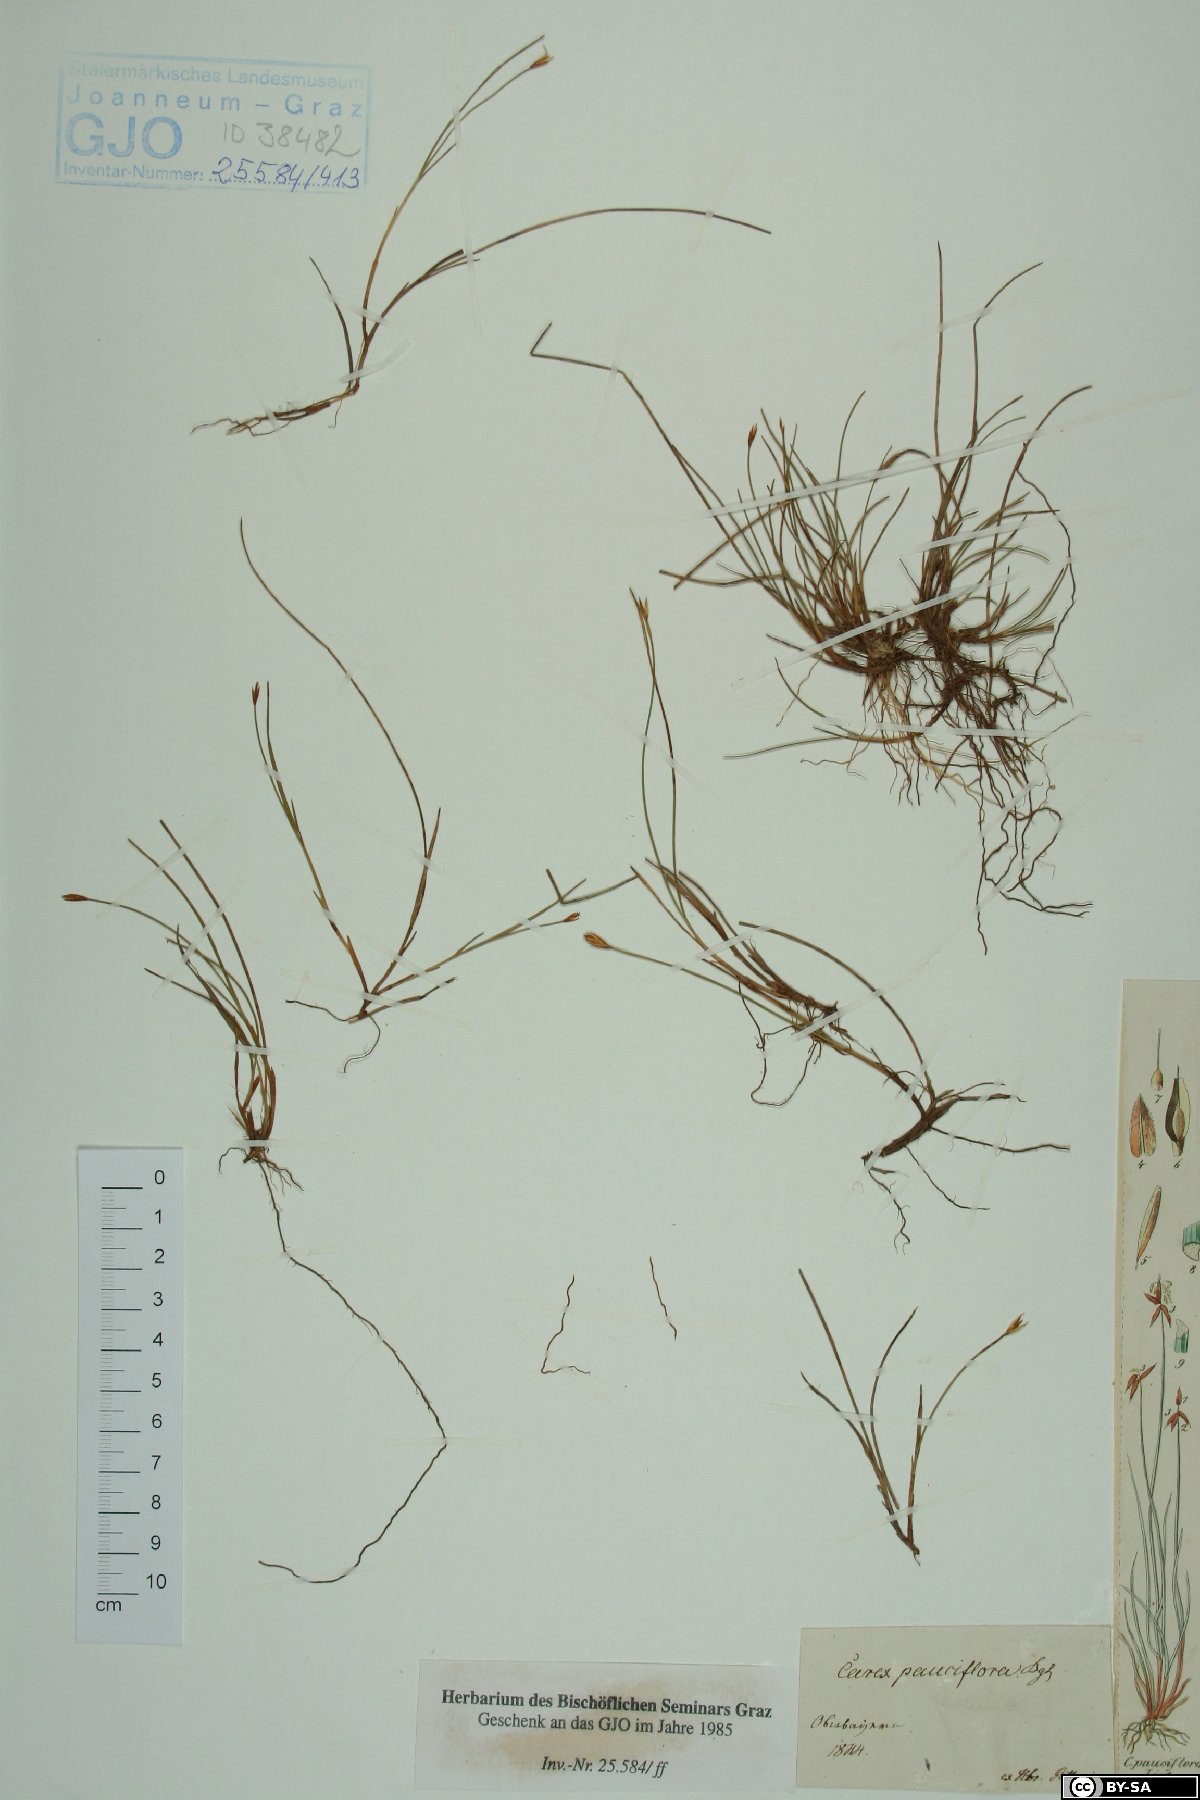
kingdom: Plantae
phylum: Tracheophyta
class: Liliopsida
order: Poales
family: Cyperaceae
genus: Carex
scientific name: Carex pauciflora
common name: Few-flowered sedge
